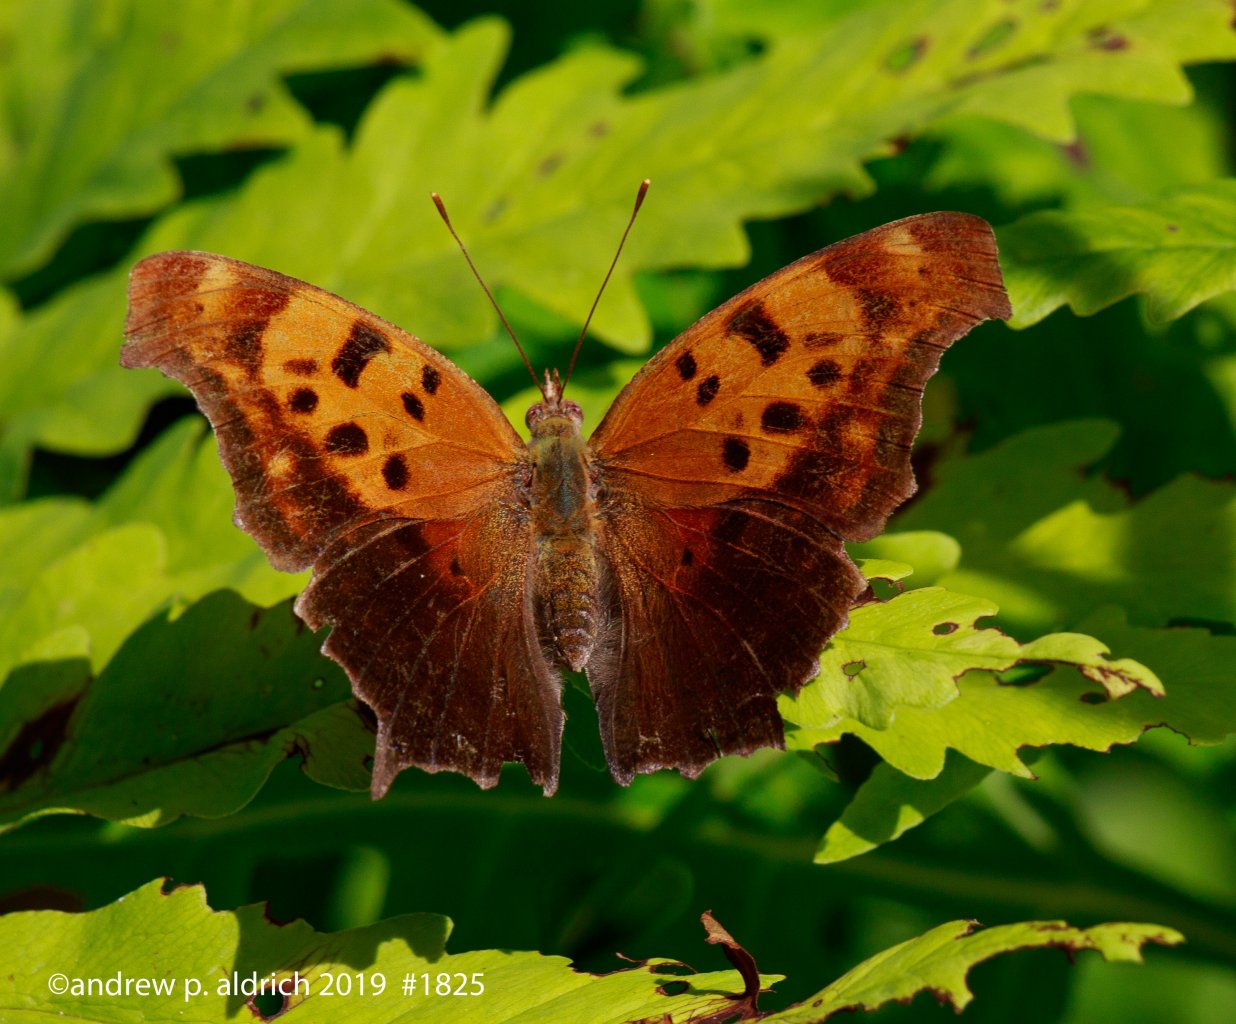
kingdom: Animalia
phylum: Arthropoda
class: Insecta
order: Lepidoptera
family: Nymphalidae
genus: Polygonia
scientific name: Polygonia interrogationis
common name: Question Mark
